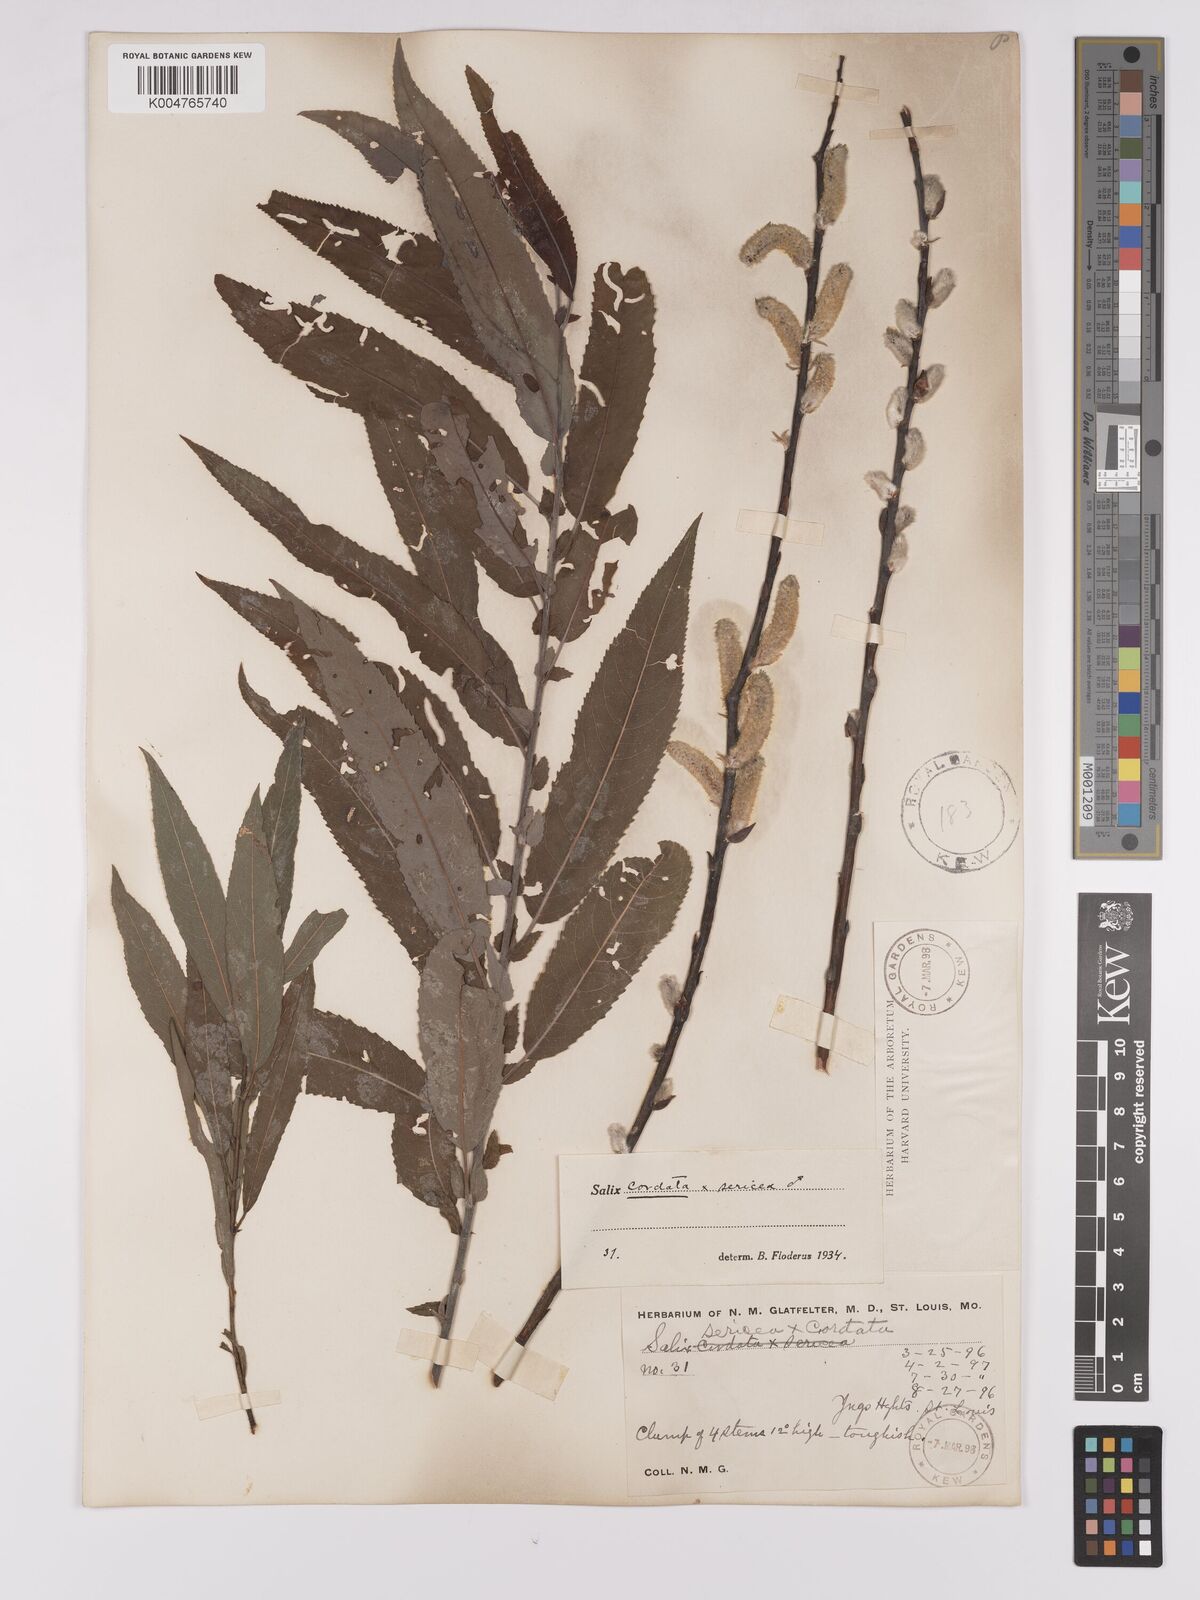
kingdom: Plantae
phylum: Tracheophyta
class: Magnoliopsida
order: Malpighiales
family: Salicaceae
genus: Salix
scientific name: Salix cordata
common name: Heart-leaf willow
